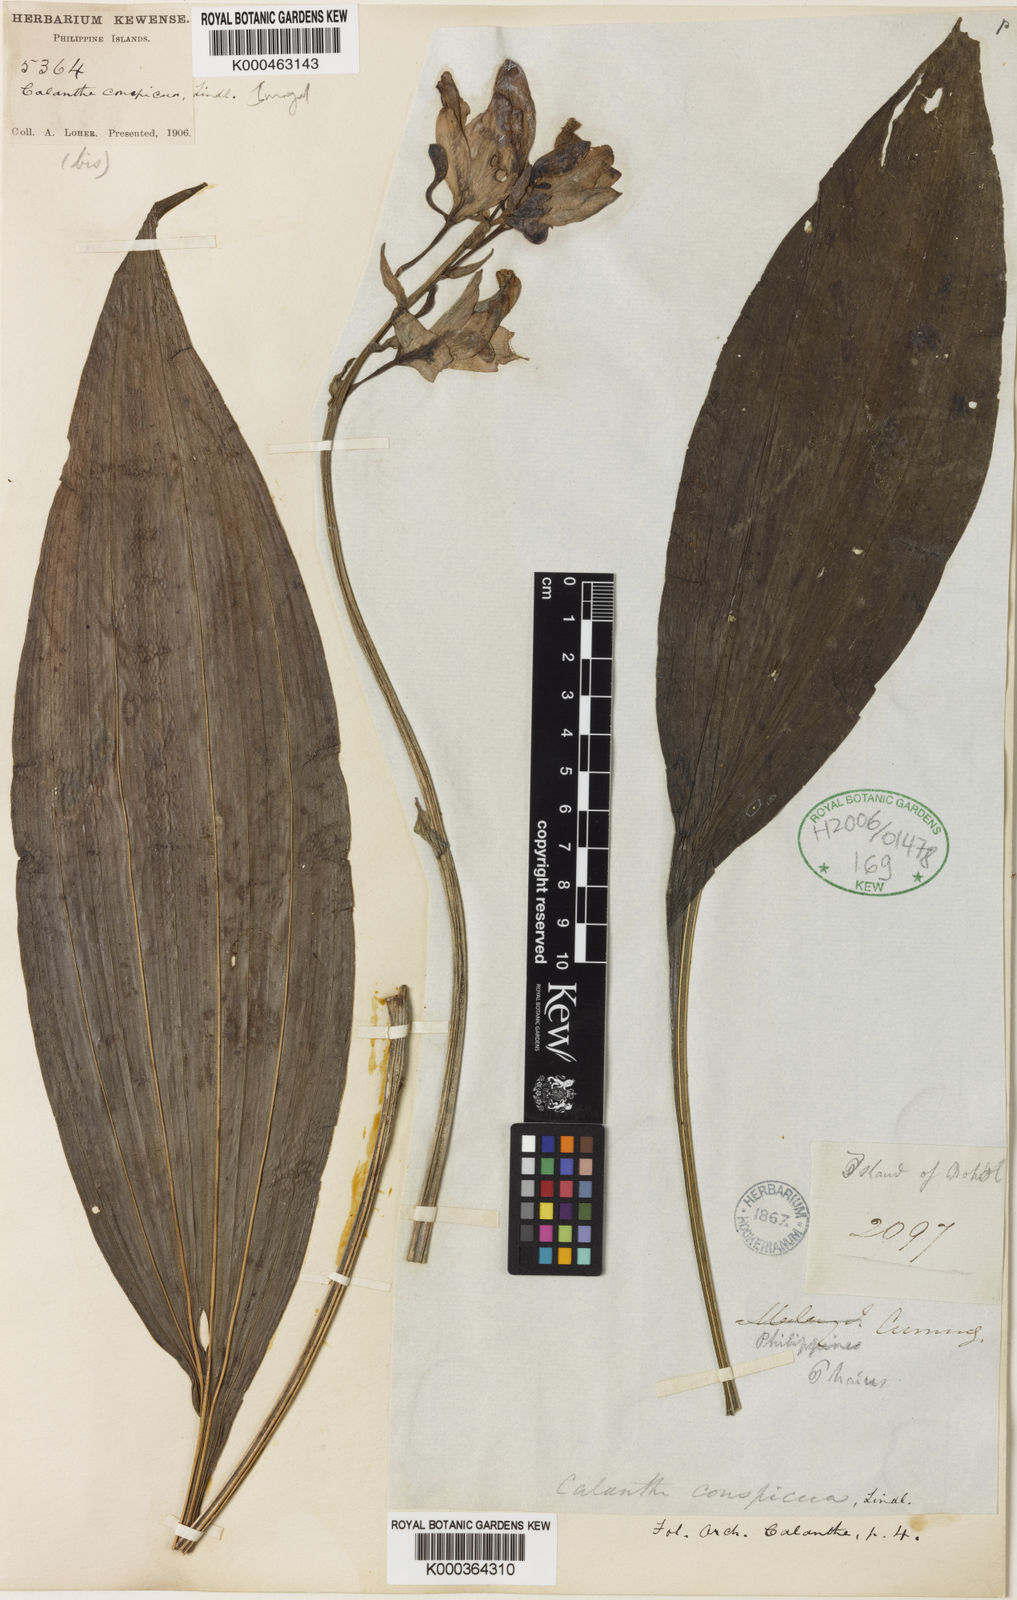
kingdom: Plantae
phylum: Tracheophyta
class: Liliopsida
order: Asparagales
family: Orchidaceae
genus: Calanthe
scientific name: Calanthe conspicua
